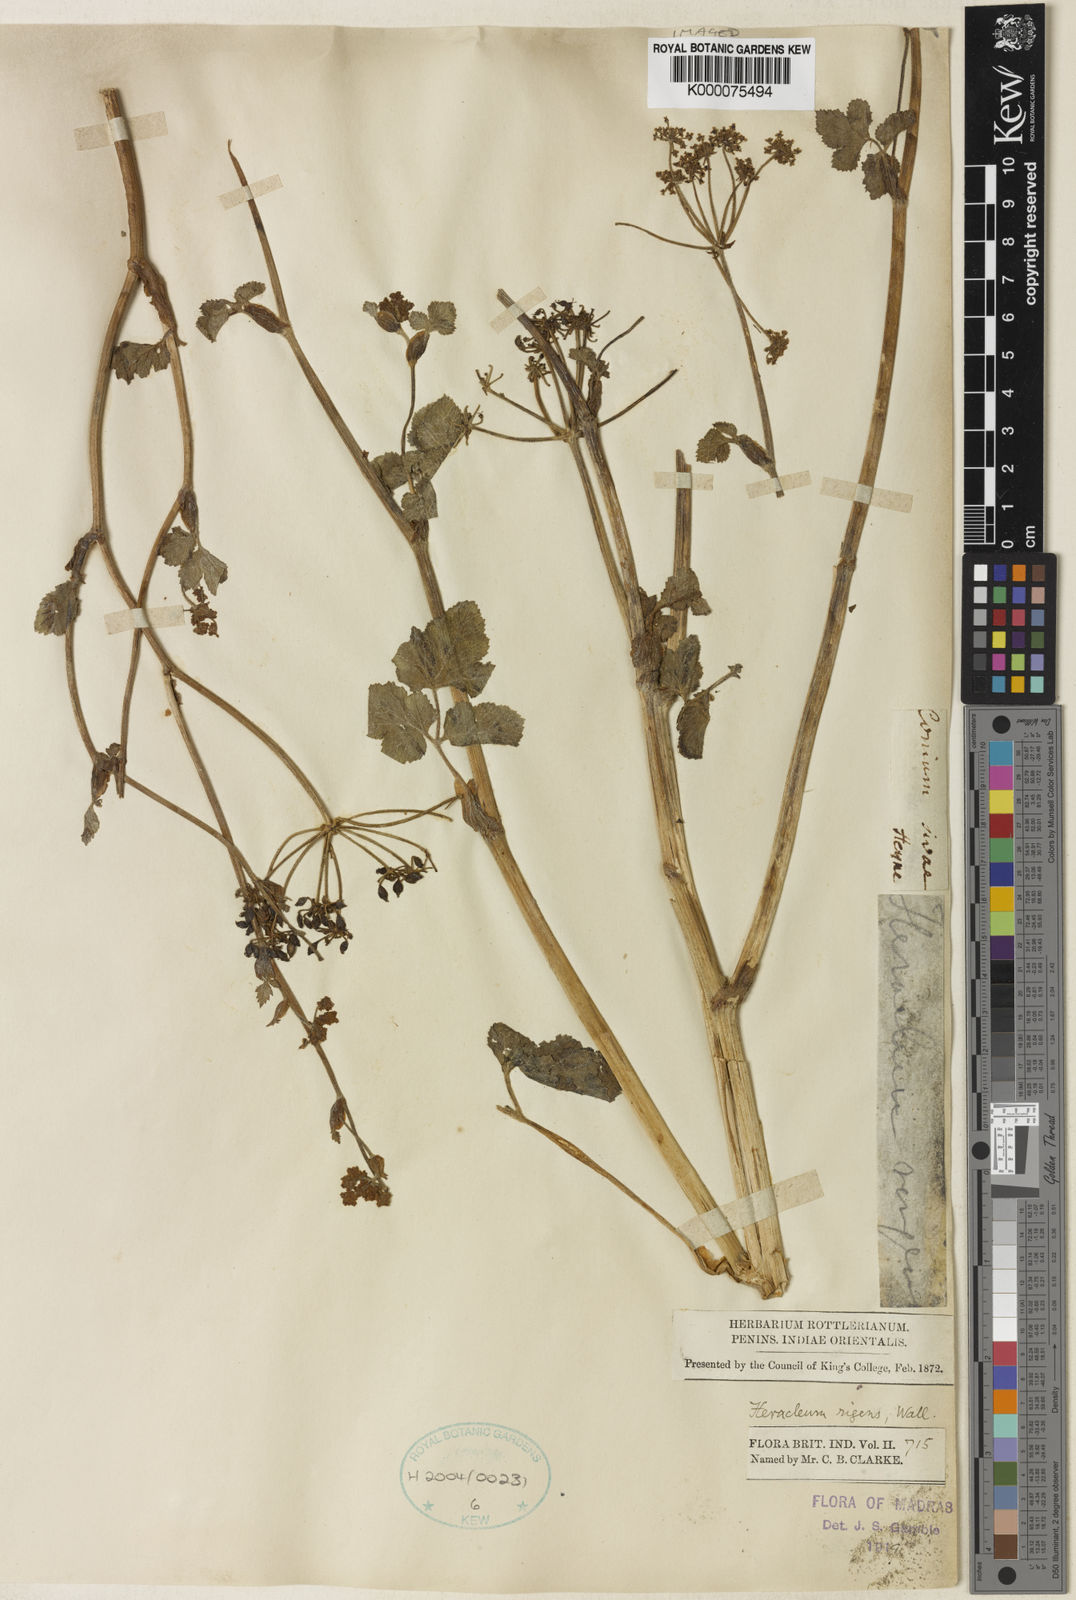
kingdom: Plantae
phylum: Tracheophyta
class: Magnoliopsida
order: Apiales
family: Apiaceae
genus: Heracleum
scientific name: Heracleum
